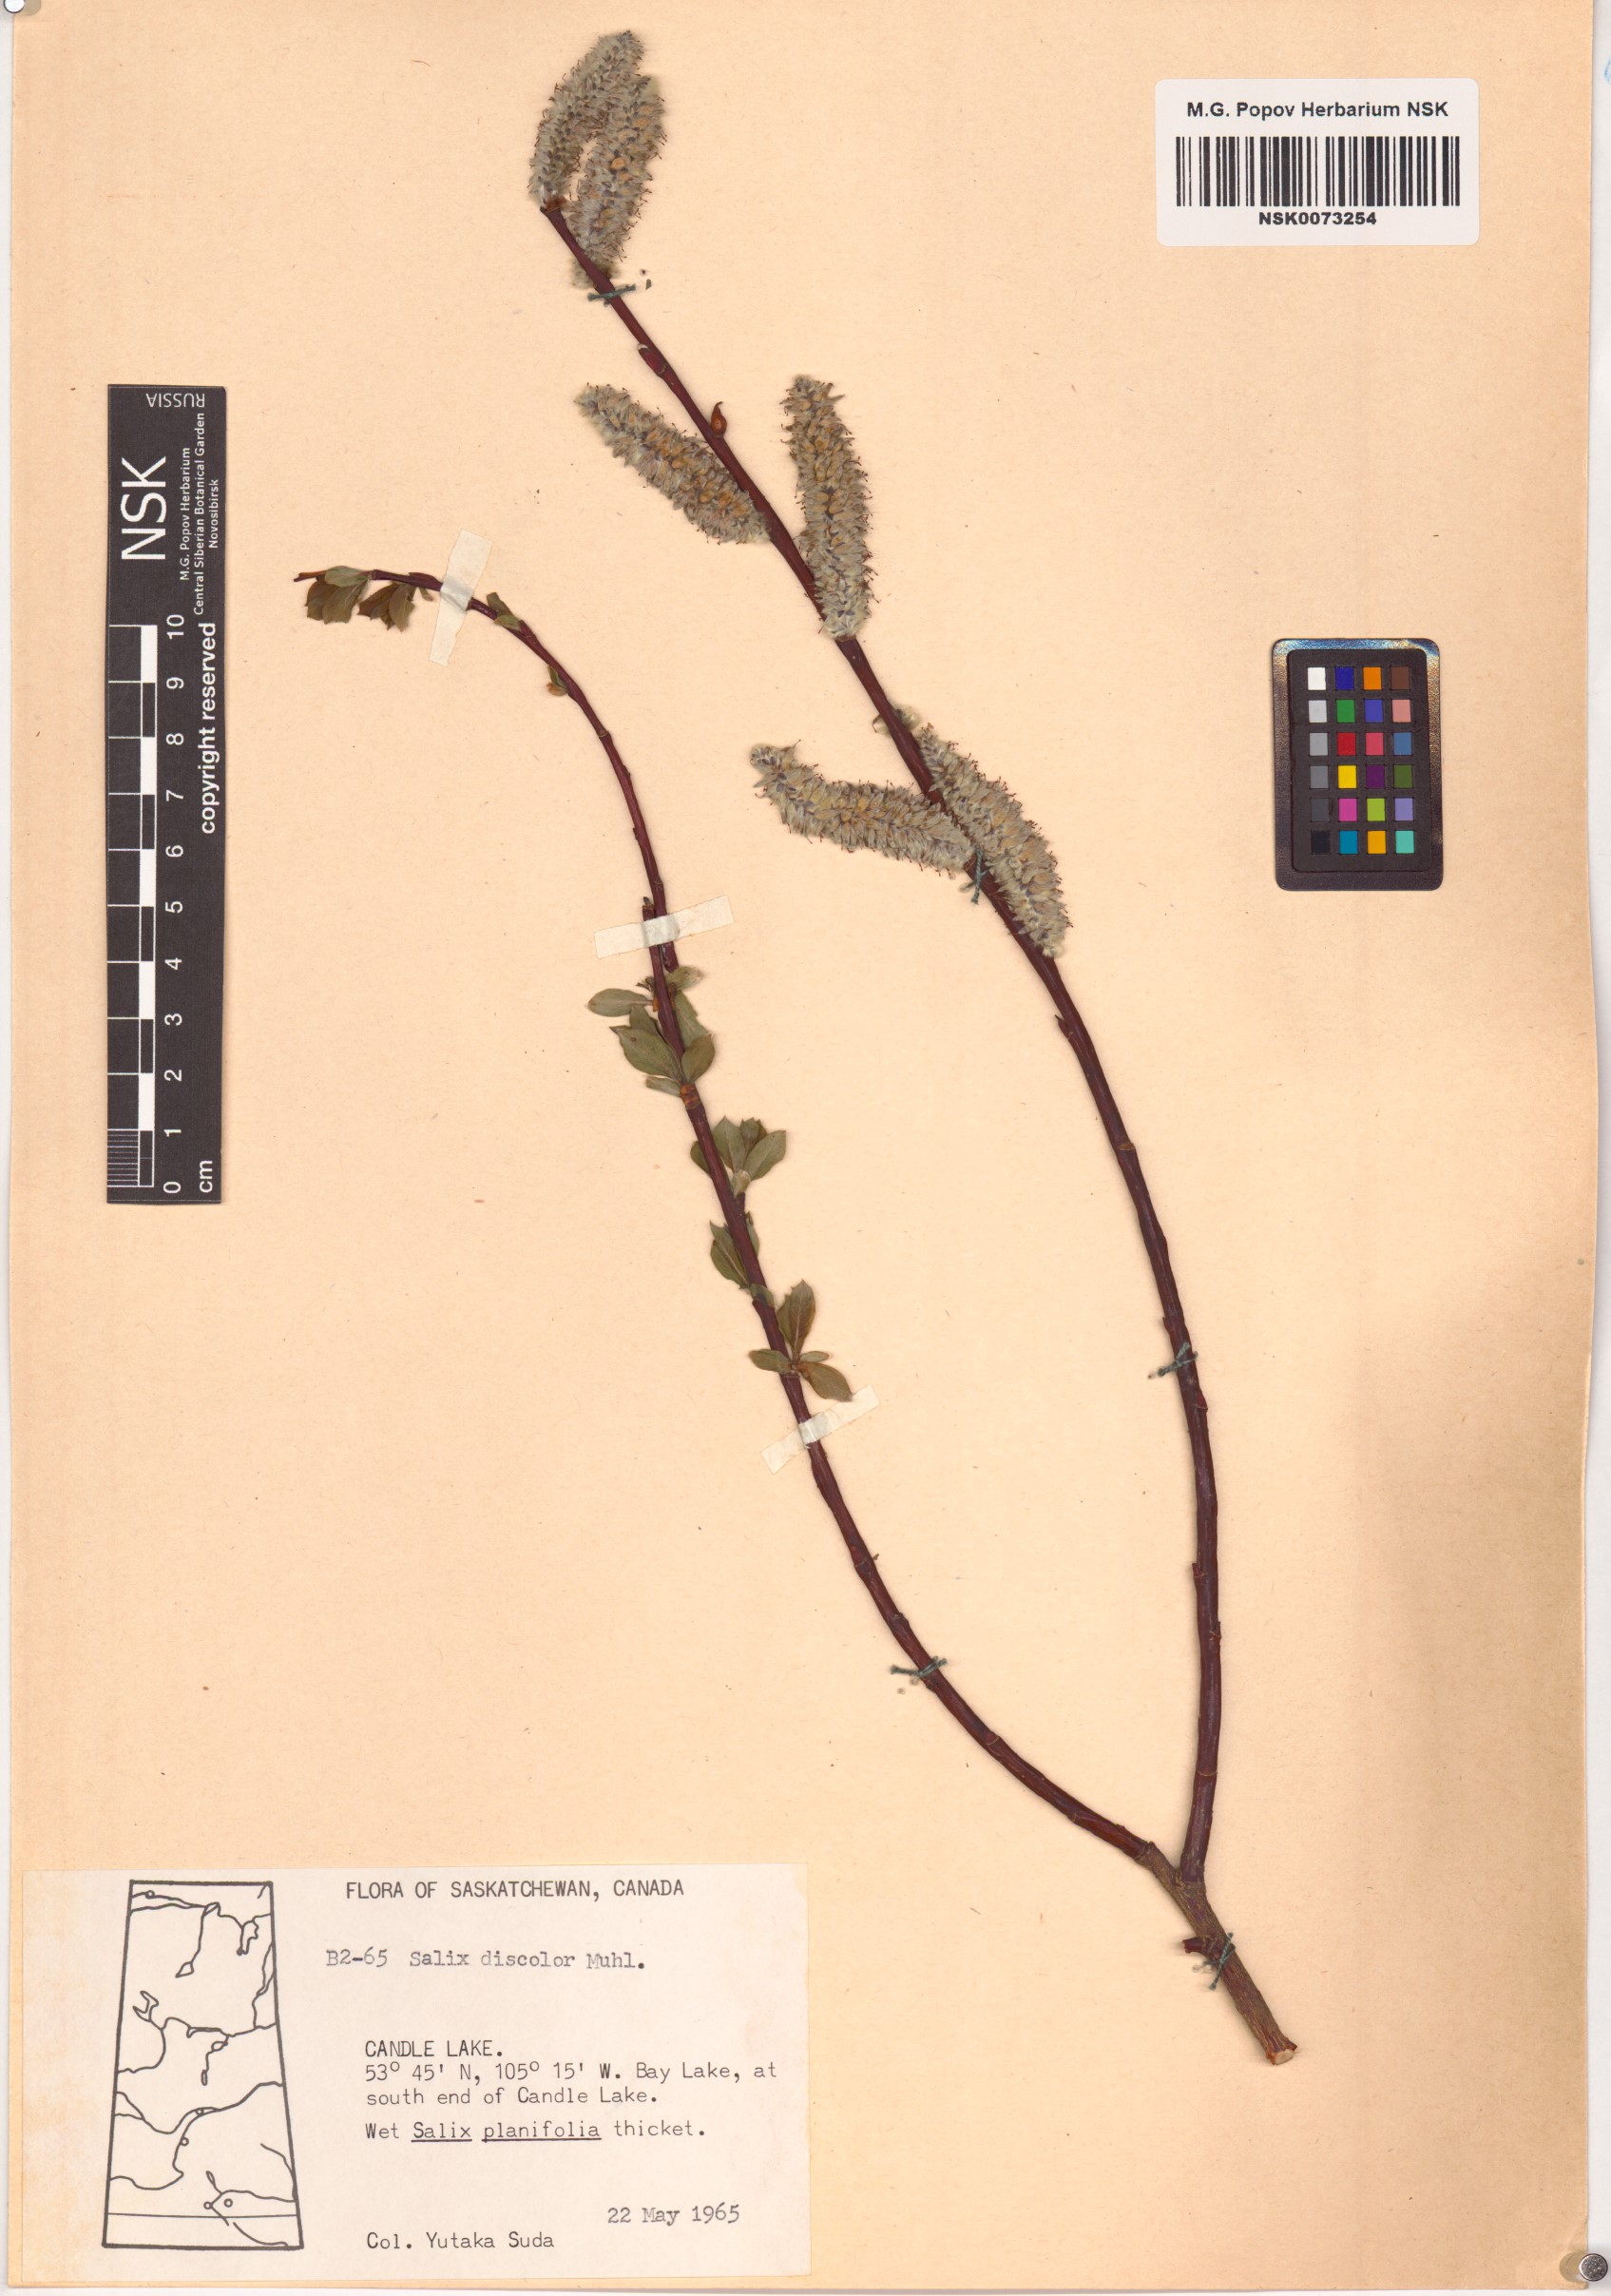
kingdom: Plantae
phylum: Tracheophyta
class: Magnoliopsida
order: Malpighiales
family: Salicaceae
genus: Salix
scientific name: Salix discolor
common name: Glaucous willow
